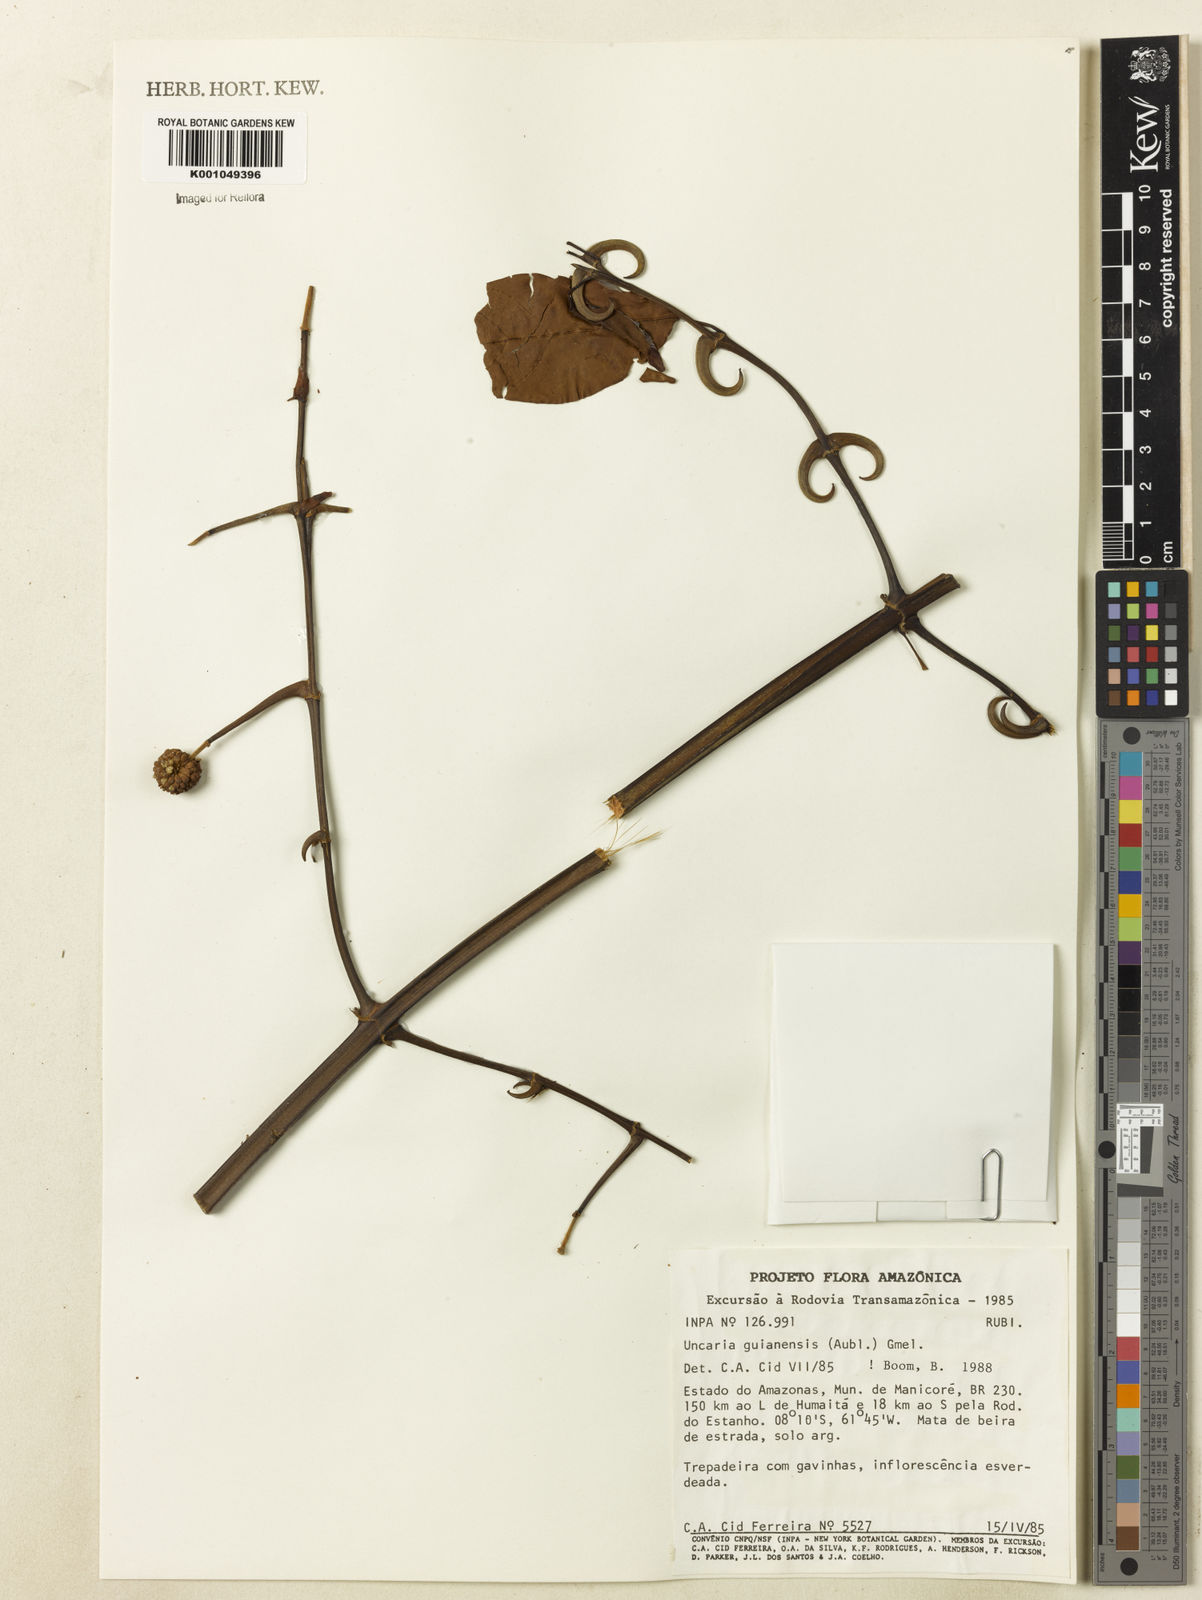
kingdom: Plantae
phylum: Tracheophyta
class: Magnoliopsida
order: Gentianales
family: Rubiaceae
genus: Uncaria
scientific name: Uncaria guianensis
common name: Cat's-claw
